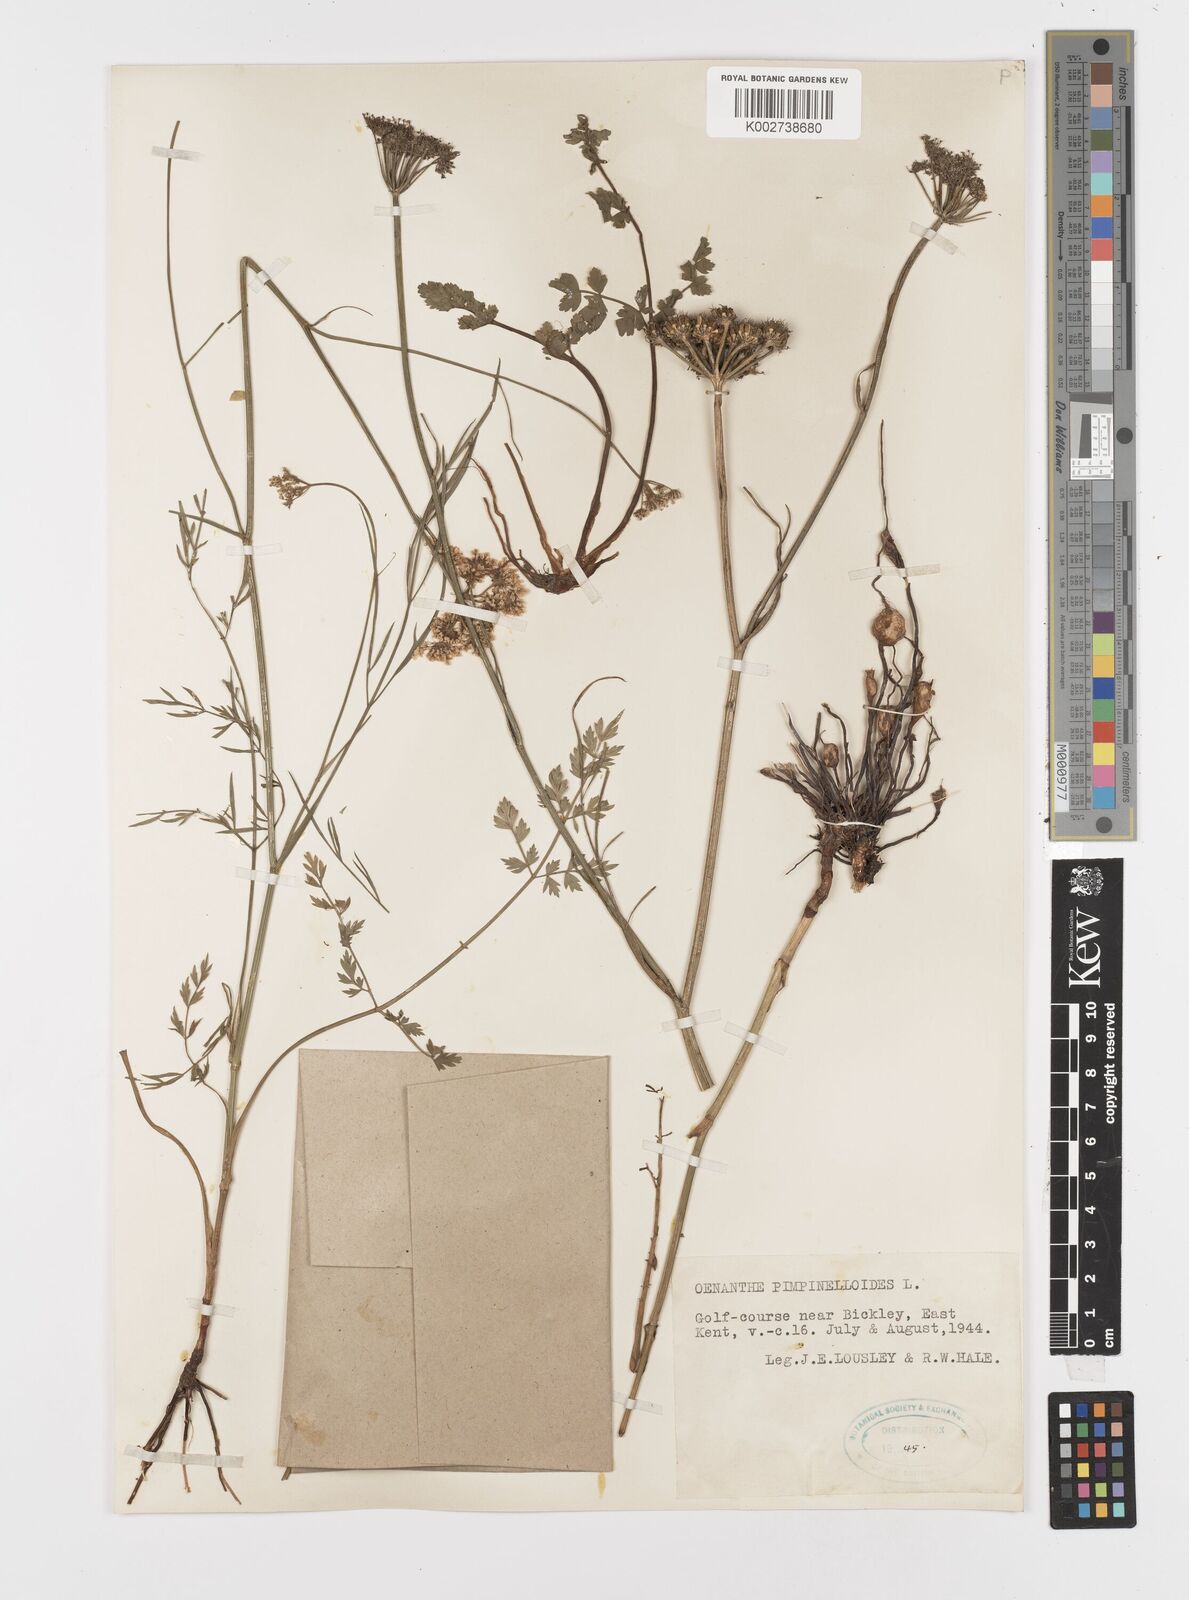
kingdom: Plantae
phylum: Tracheophyta
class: Magnoliopsida
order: Apiales
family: Apiaceae
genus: Oenanthe
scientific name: Oenanthe pimpinelloides
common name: Corky-fruited water-dropwort
